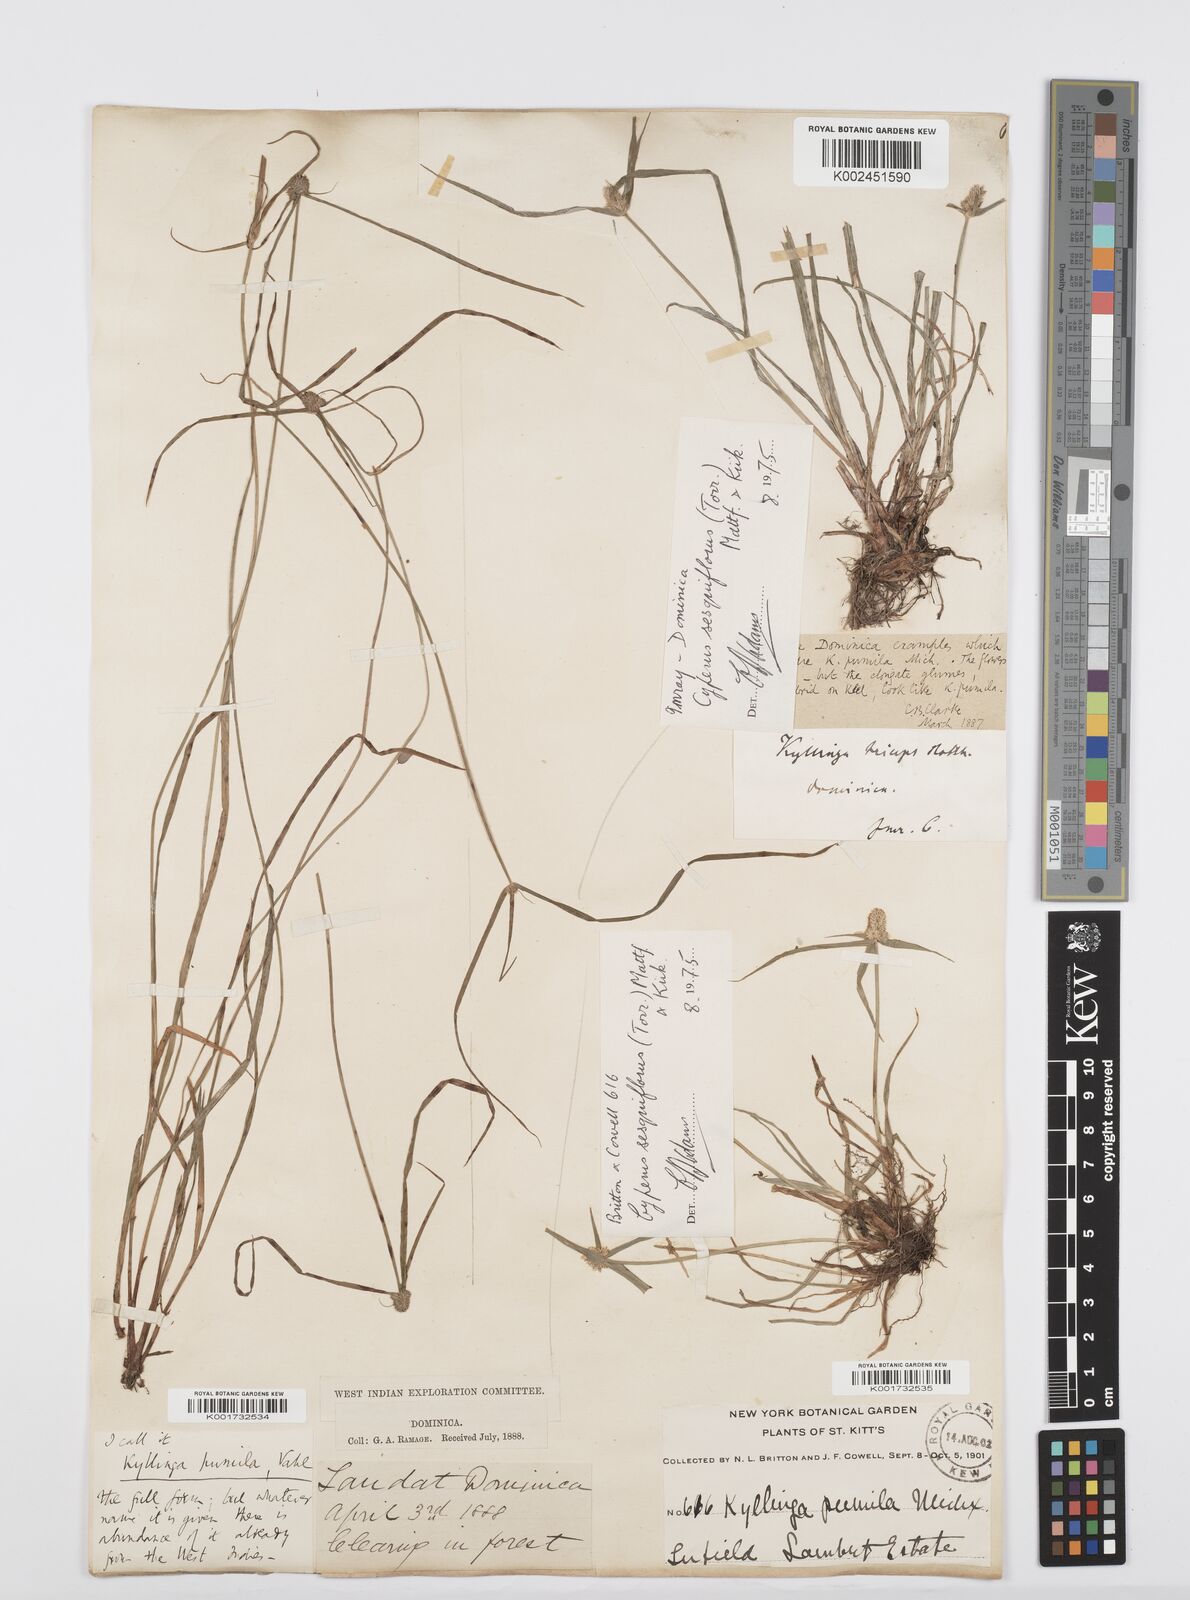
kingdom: Plantae
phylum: Tracheophyta
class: Liliopsida
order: Poales
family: Cyperaceae
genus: Cyperus
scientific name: Cyperus
